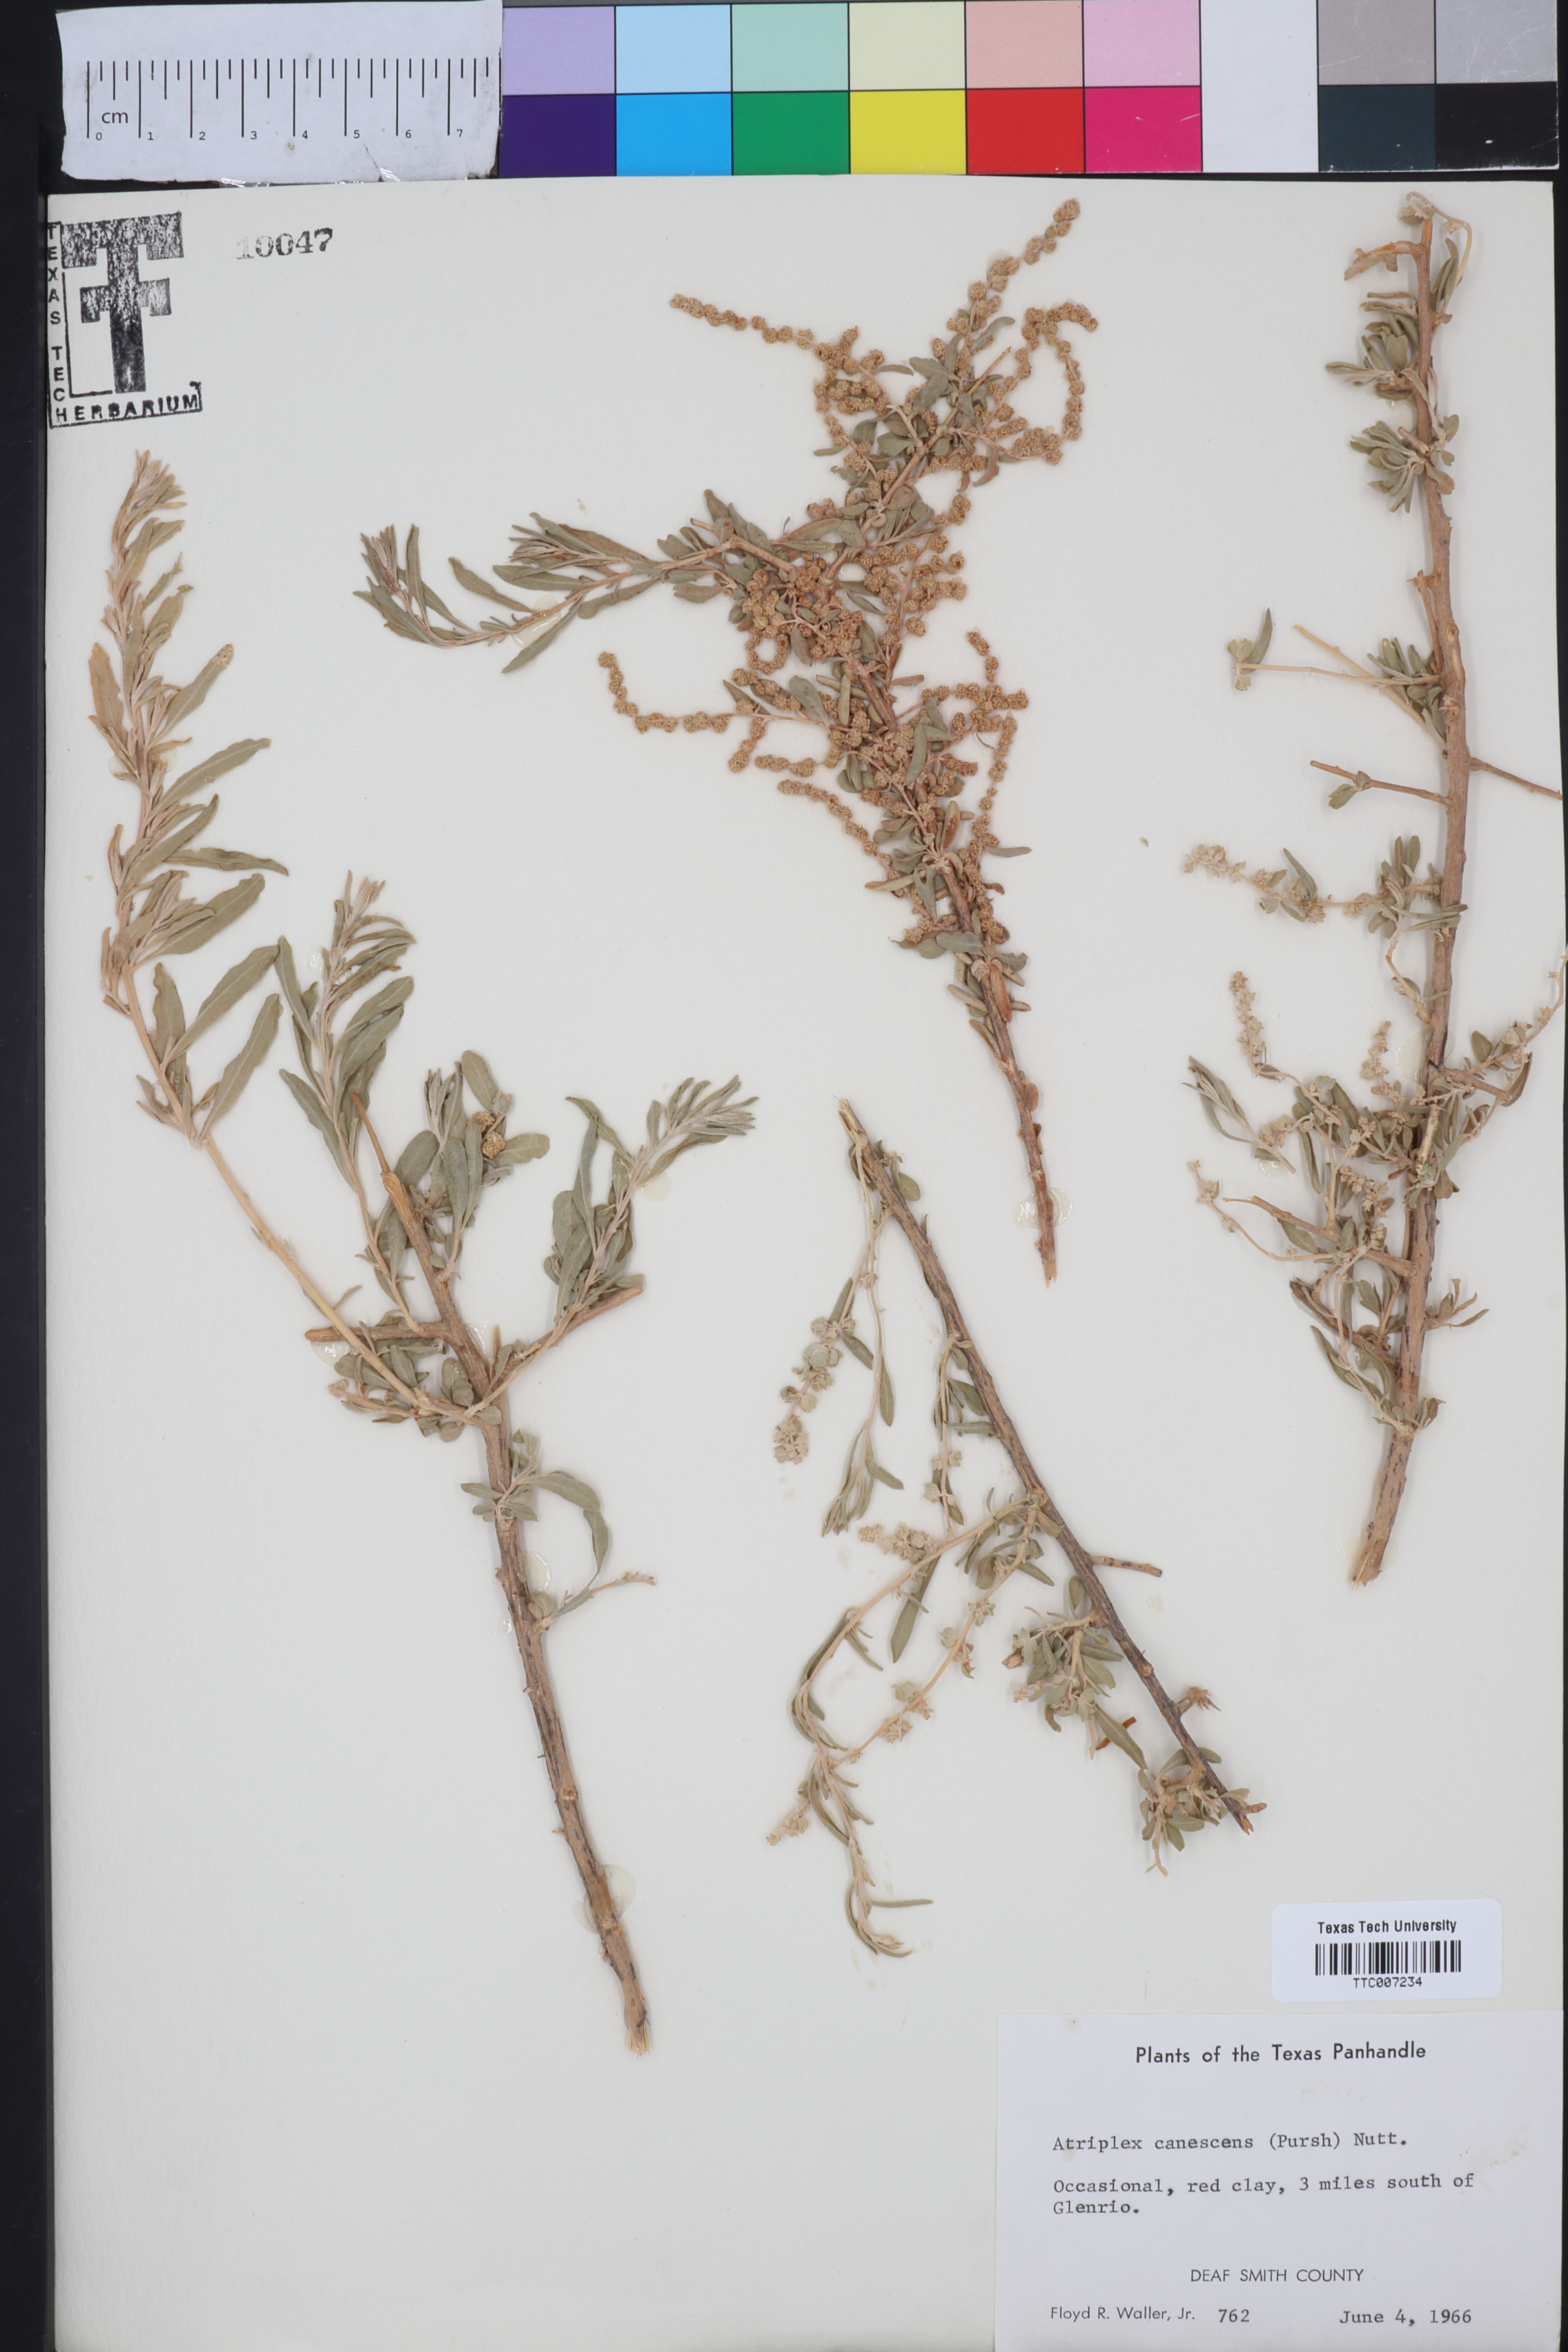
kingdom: Plantae
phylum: Tracheophyta
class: Magnoliopsida
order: Caryophyllales
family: Amaranthaceae
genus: Atriplex
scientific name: Atriplex canescens
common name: Four-wing saltbush
